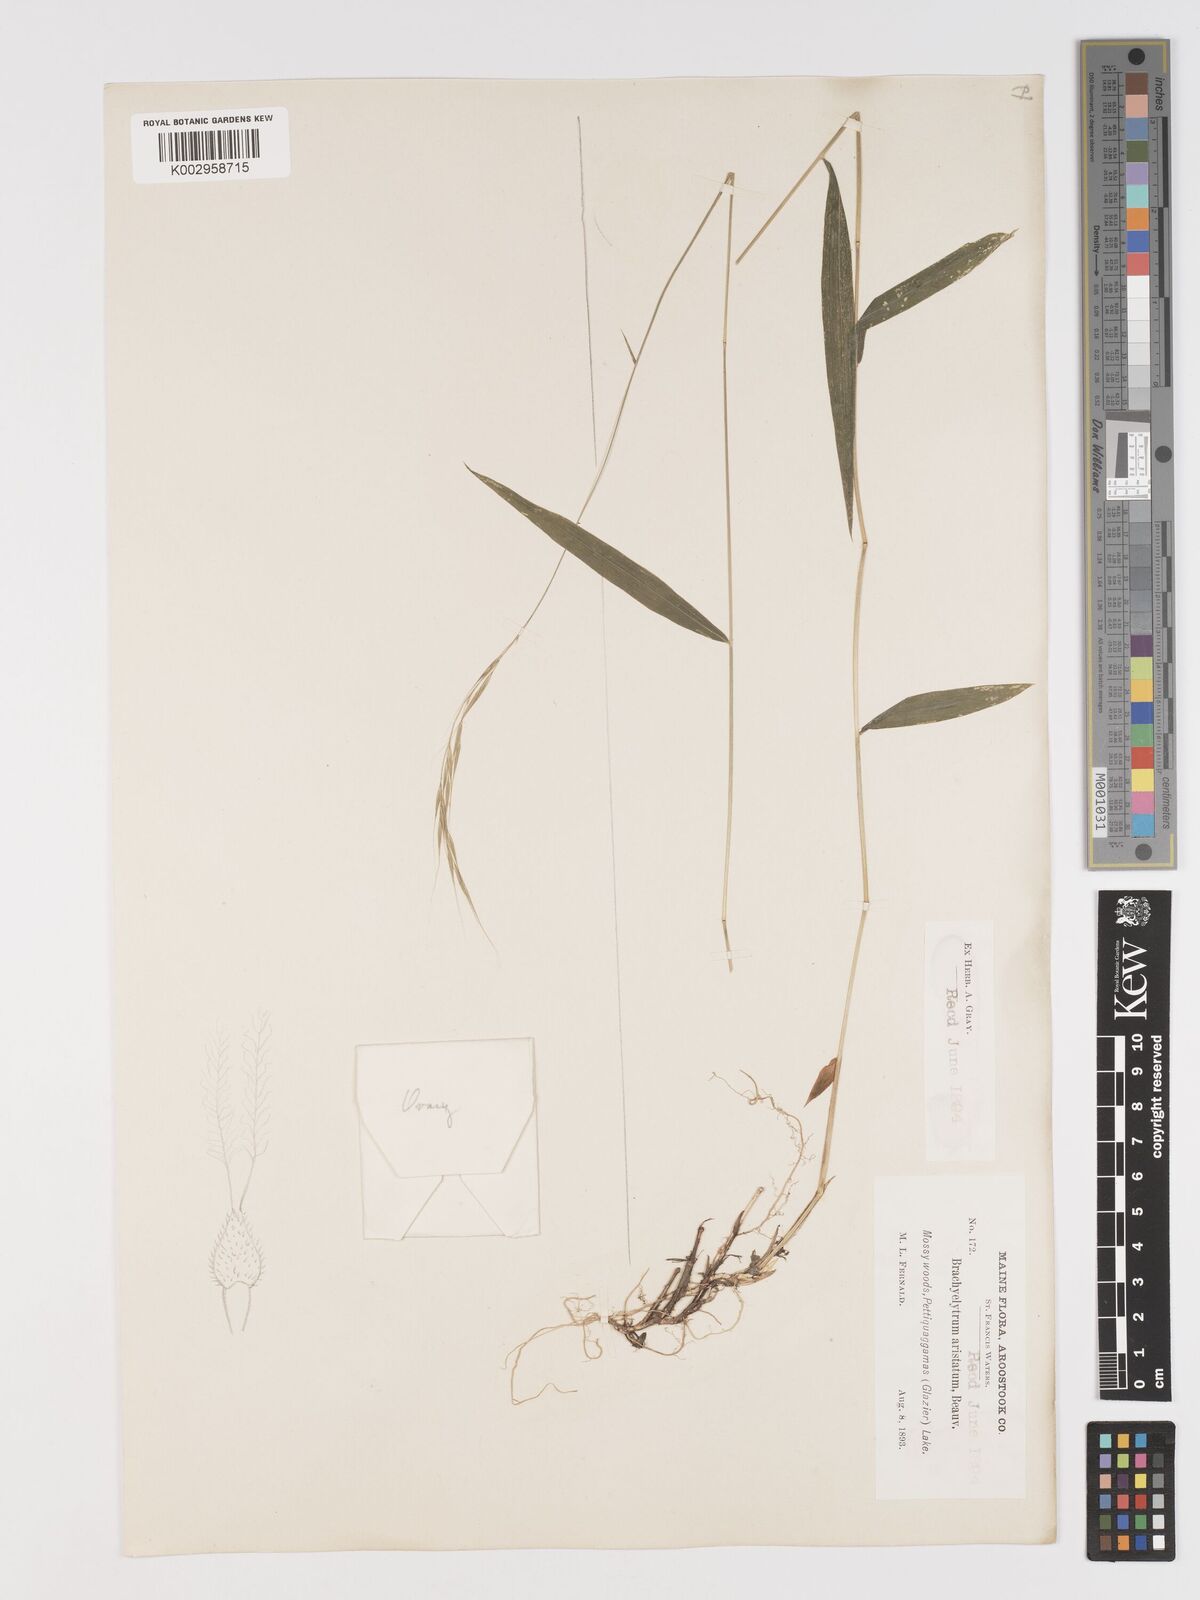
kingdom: Plantae
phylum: Tracheophyta
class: Liliopsida
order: Poales
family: Poaceae
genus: Brachyelytrum
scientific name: Brachyelytrum aristosum
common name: Northern shorthusk
